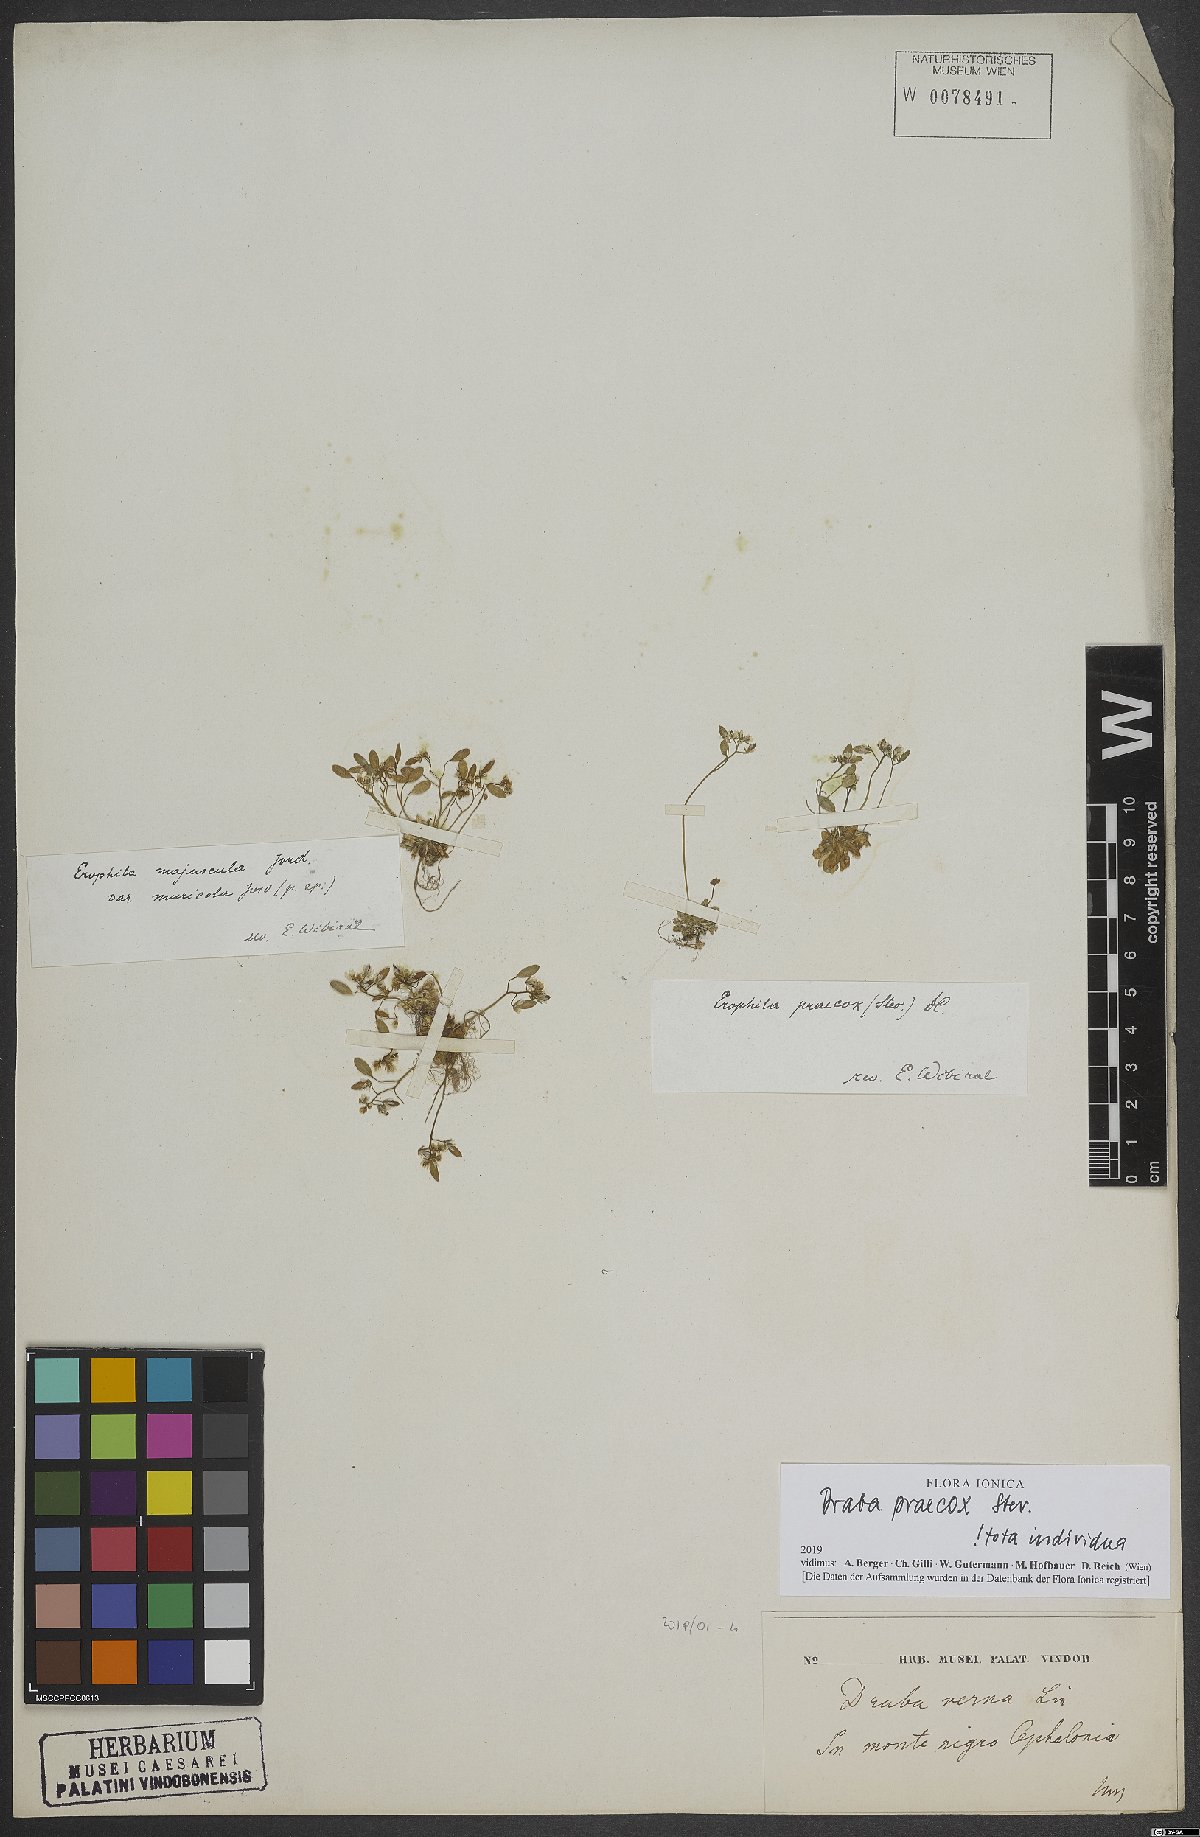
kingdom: Plantae
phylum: Tracheophyta
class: Magnoliopsida
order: Brassicales
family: Brassicaceae
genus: Draba
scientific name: Draba verna
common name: Spring draba
